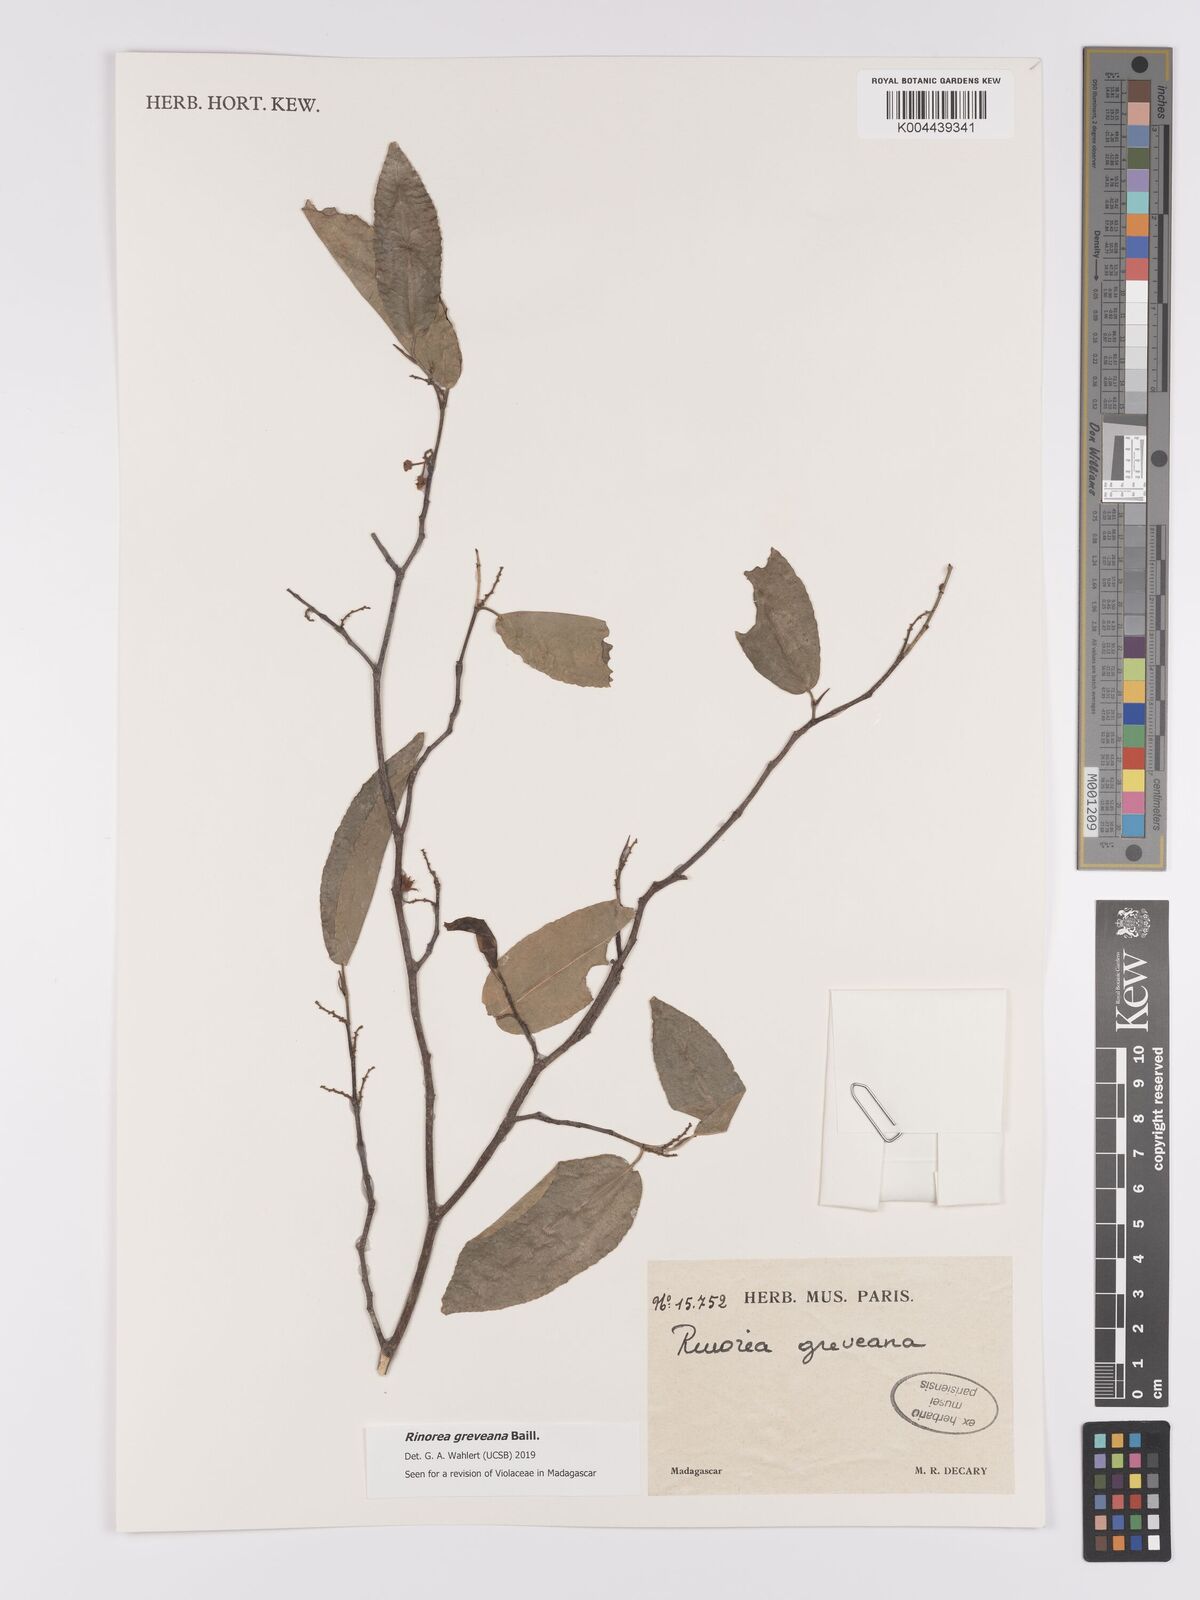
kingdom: Plantae
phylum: Tracheophyta
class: Magnoliopsida
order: Malpighiales
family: Violaceae
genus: Rinorea
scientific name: Rinorea greveana
